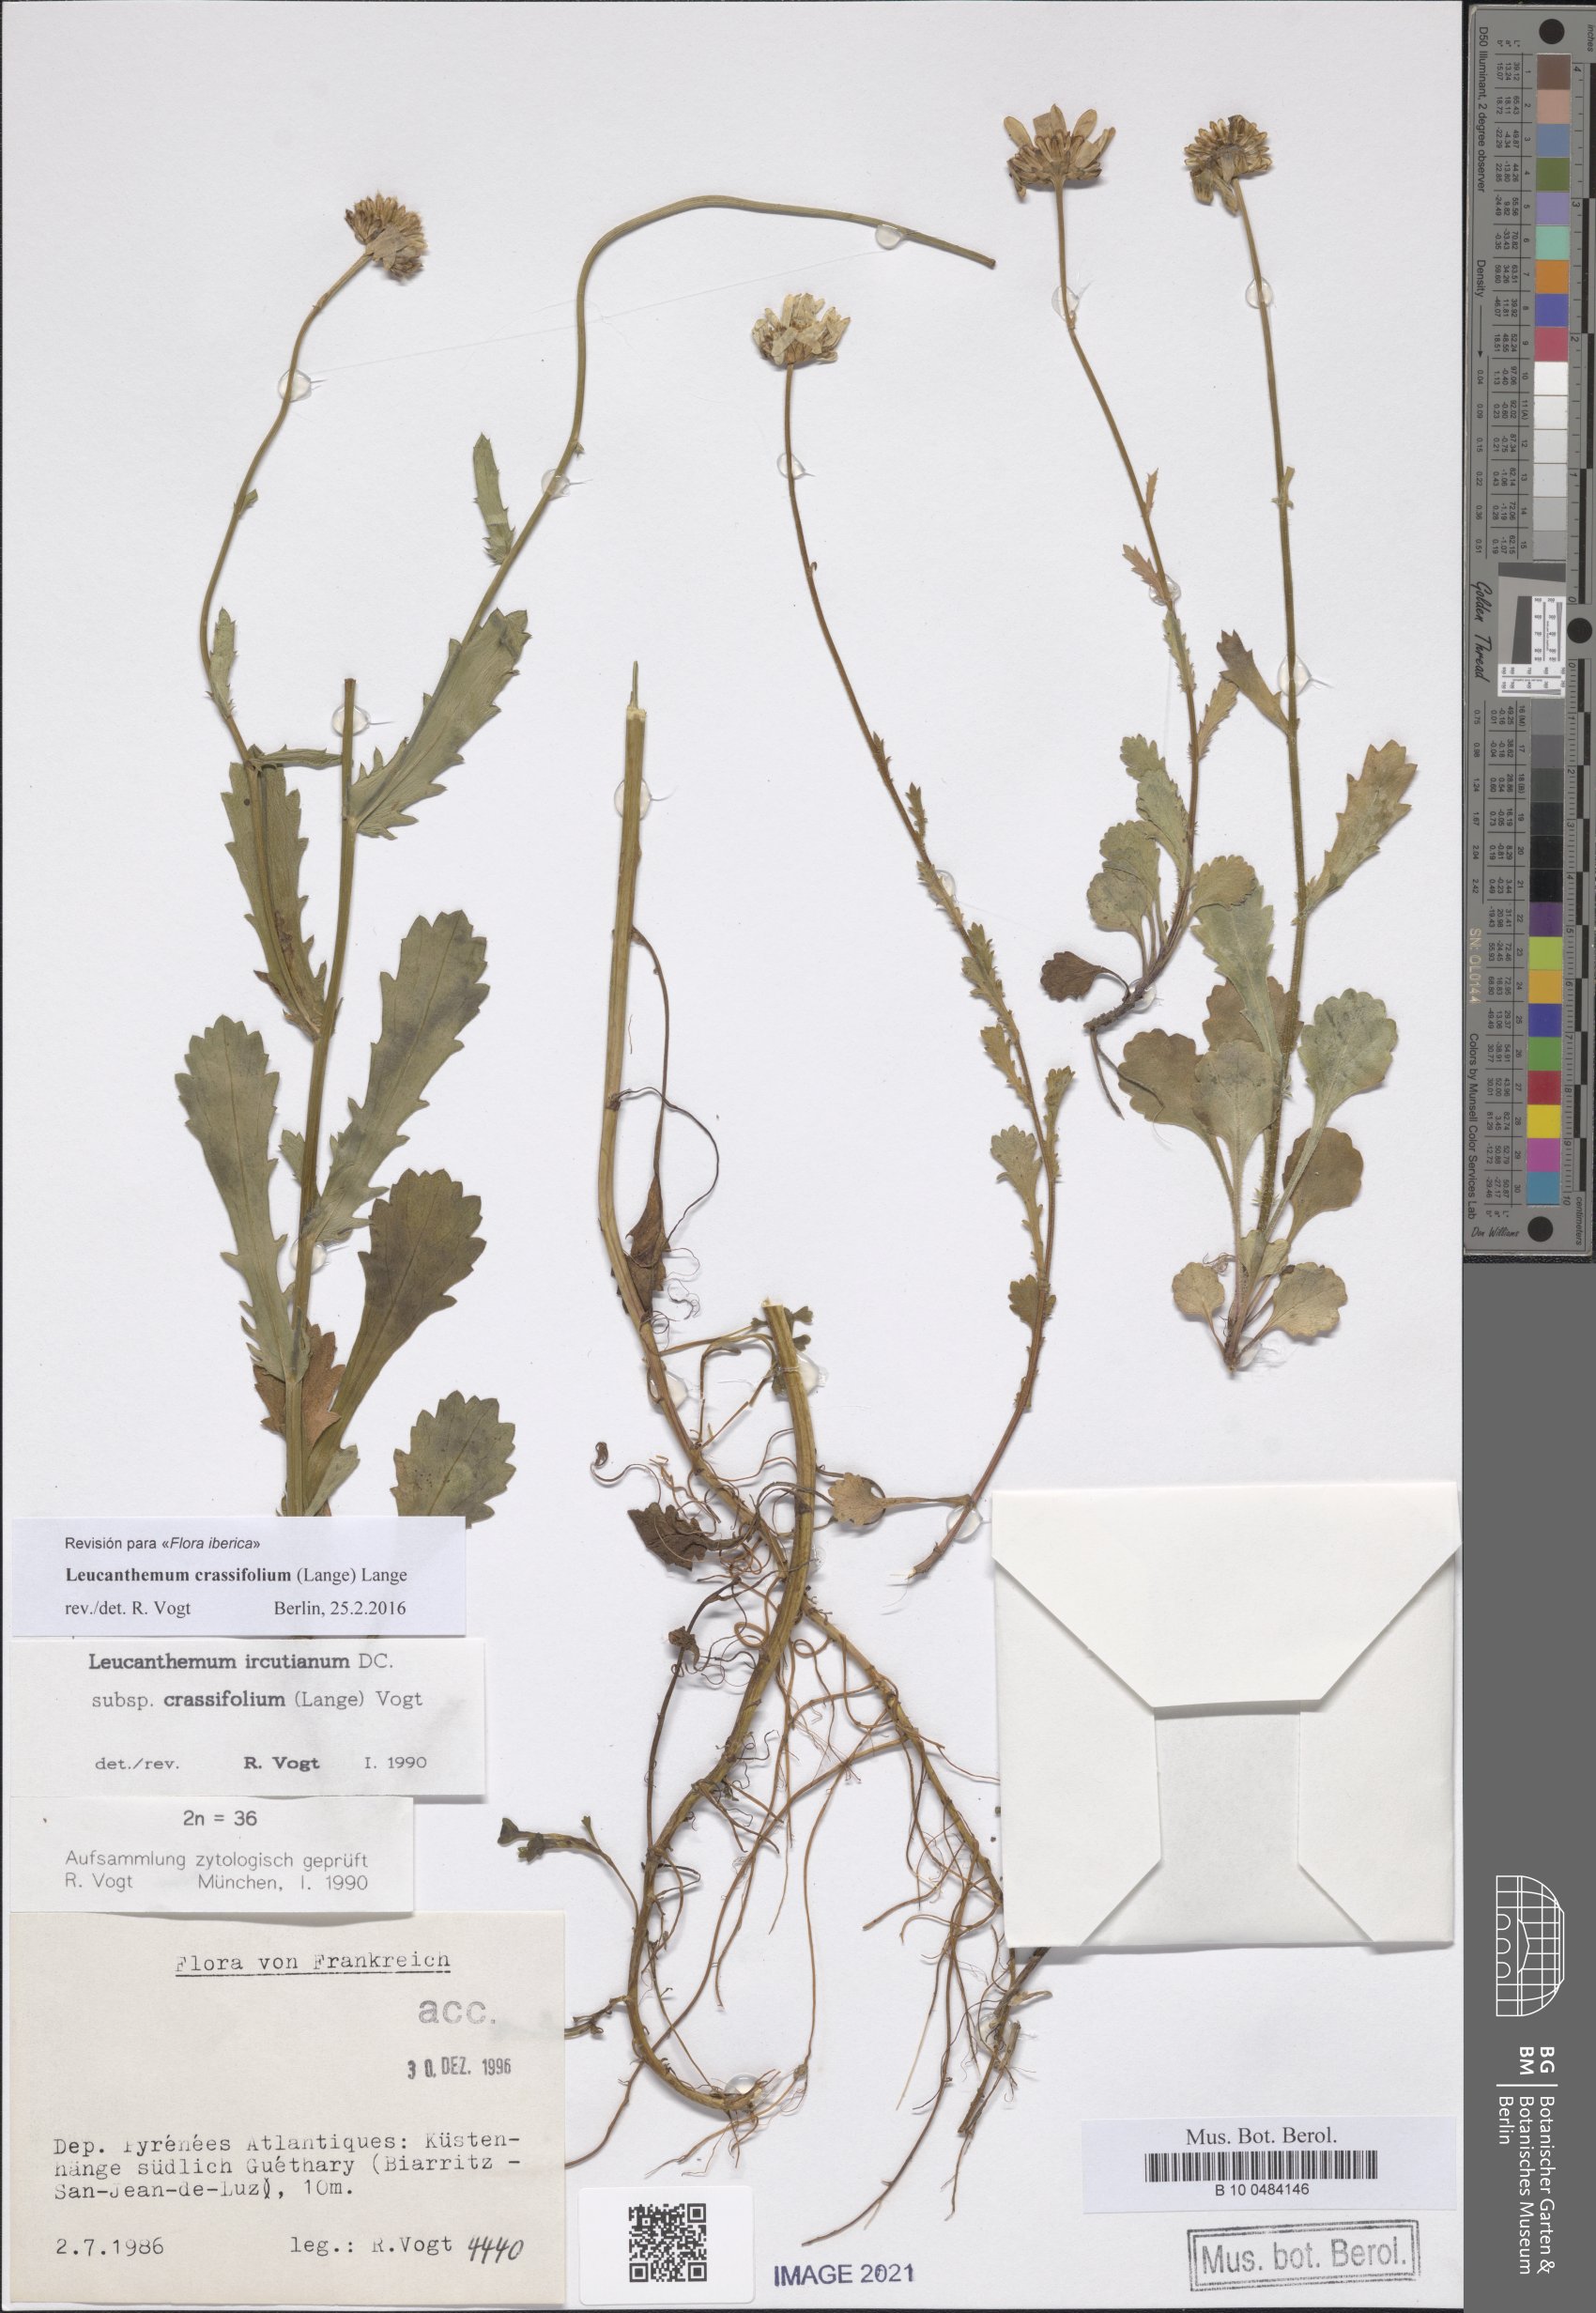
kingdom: Plantae
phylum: Tracheophyta
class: Magnoliopsida
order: Asterales
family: Asteraceae
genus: Leucanthemum
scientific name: Leucanthemum crassifolium
